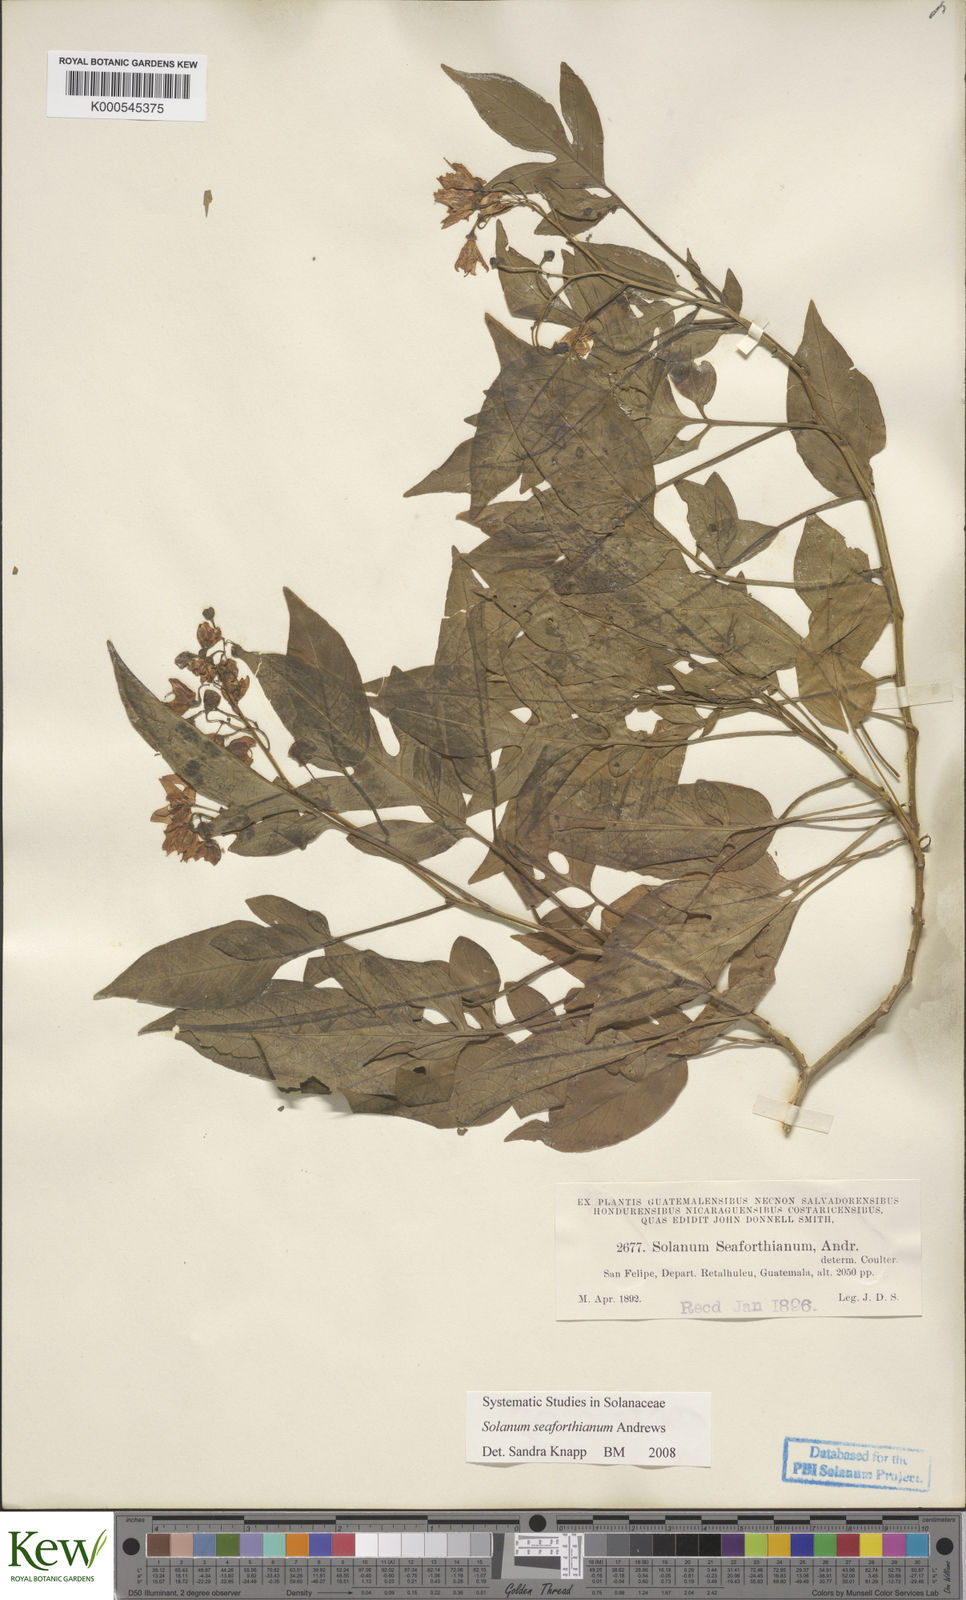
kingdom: Plantae
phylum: Tracheophyta
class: Magnoliopsida
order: Solanales
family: Solanaceae
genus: Solanum
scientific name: Solanum seaforthianum
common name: Brazilian nightshade
